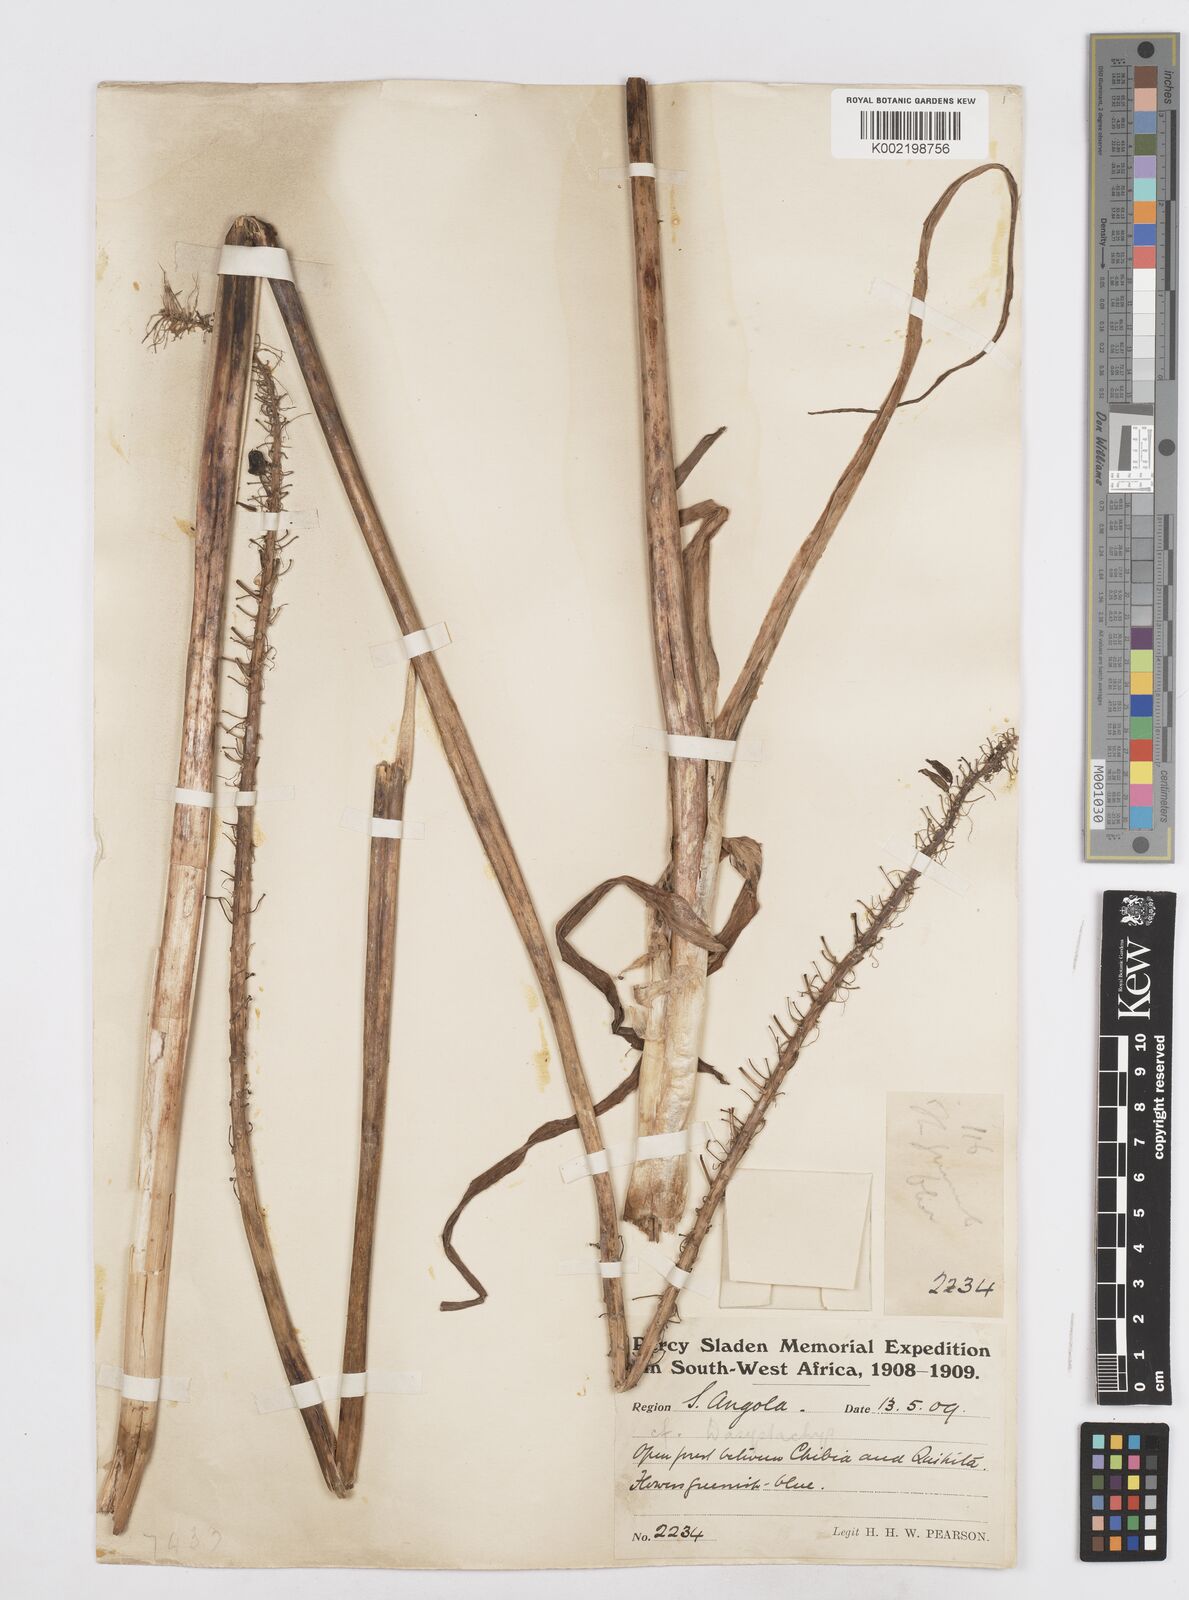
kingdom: Plantae
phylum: Tracheophyta
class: Liliopsida
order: Asparagales
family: Asparagaceae
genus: Drimia
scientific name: Drimia
